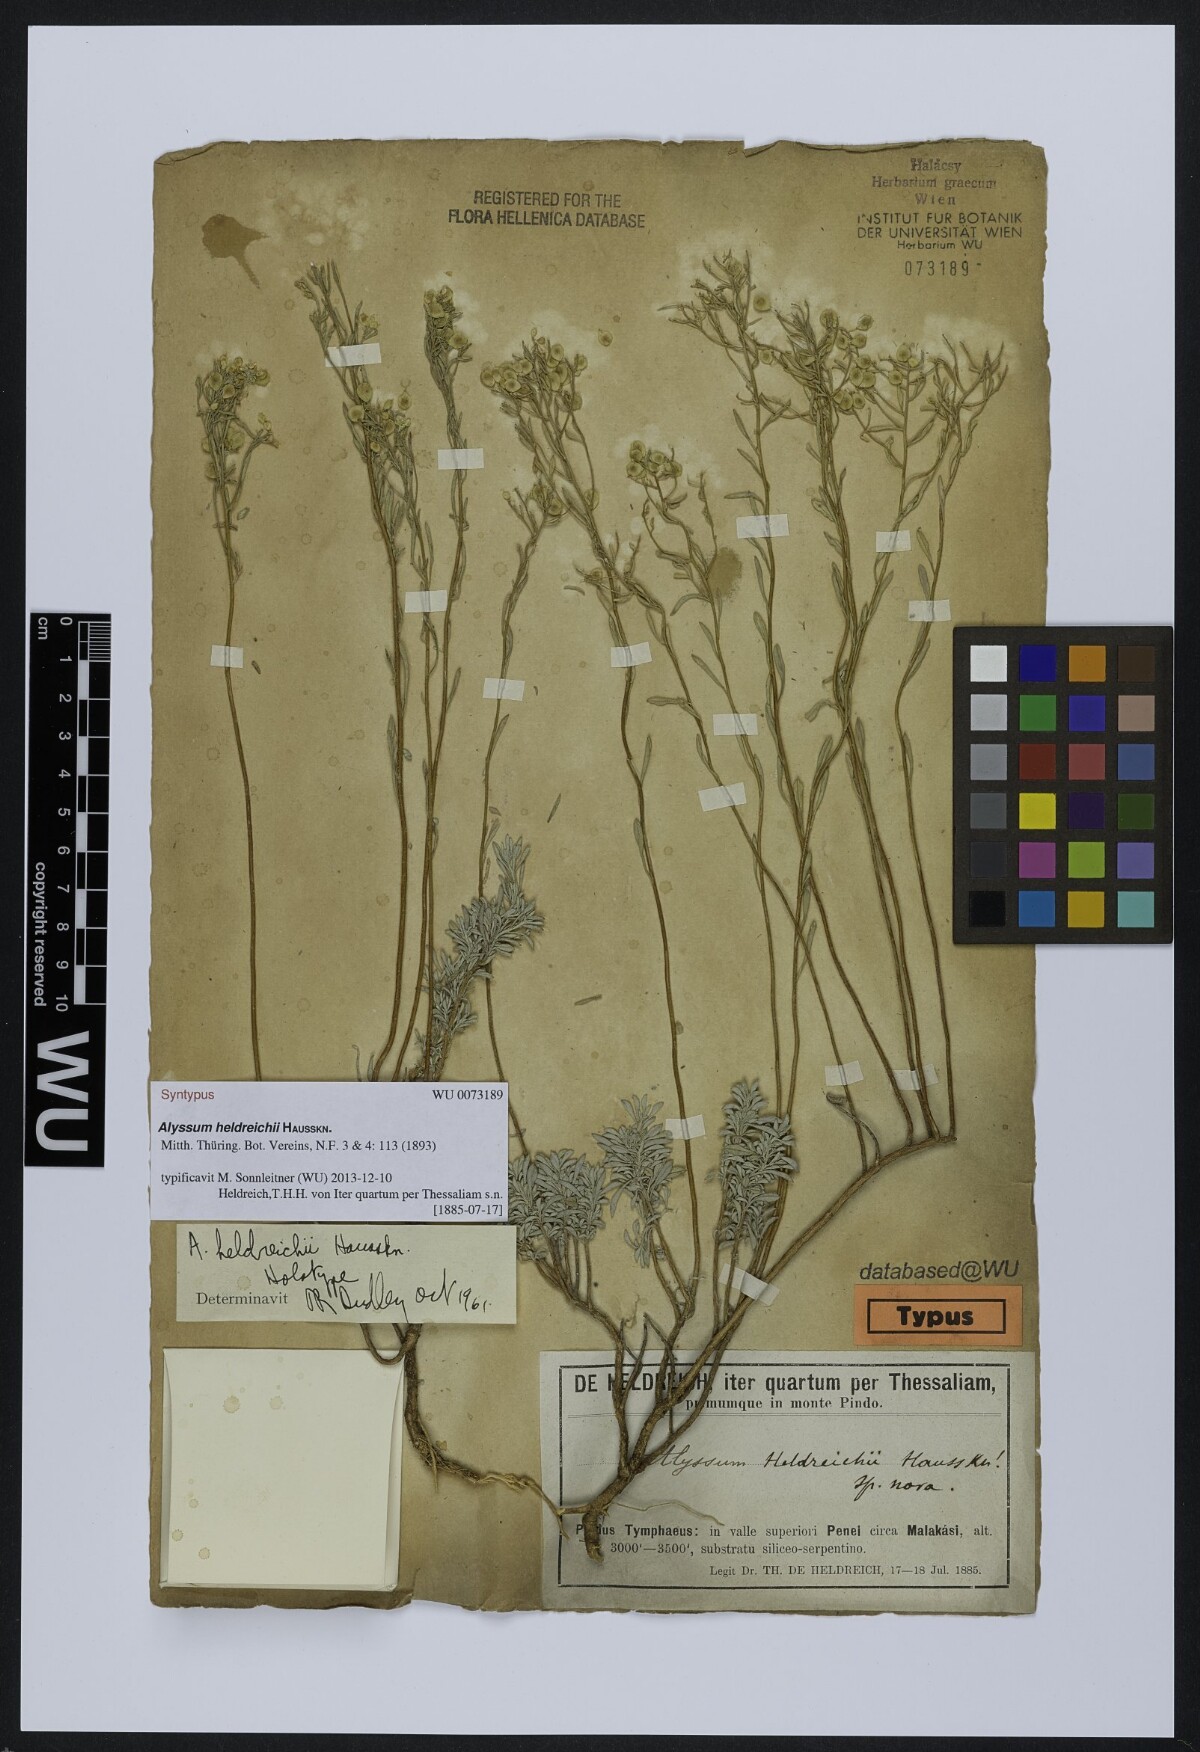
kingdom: Plantae
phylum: Tracheophyta
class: Magnoliopsida
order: Brassicales
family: Brassicaceae
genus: Odontarrhena
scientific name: Odontarrhena heldreichii
